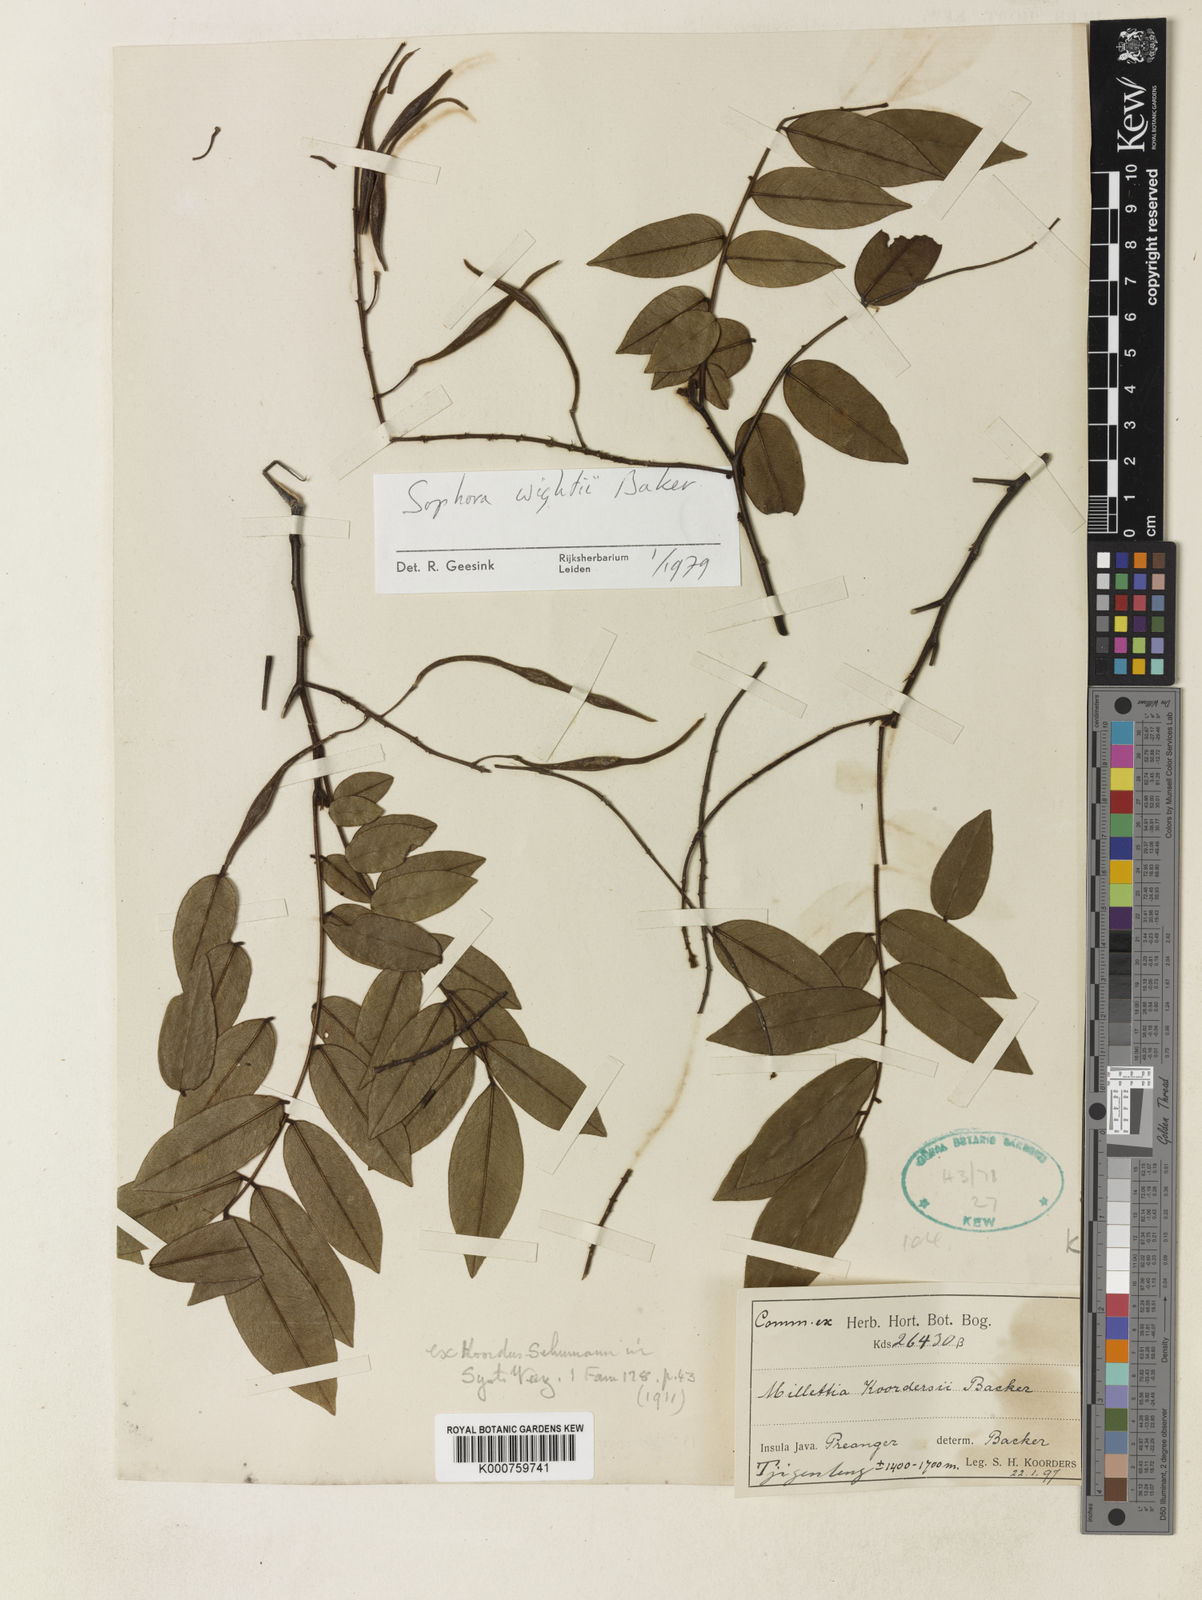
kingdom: Plantae
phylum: Tracheophyta
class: Magnoliopsida
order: Fabales
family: Fabaceae
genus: Sophora
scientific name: Sophora tomentosa
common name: Yellow necklacepod
